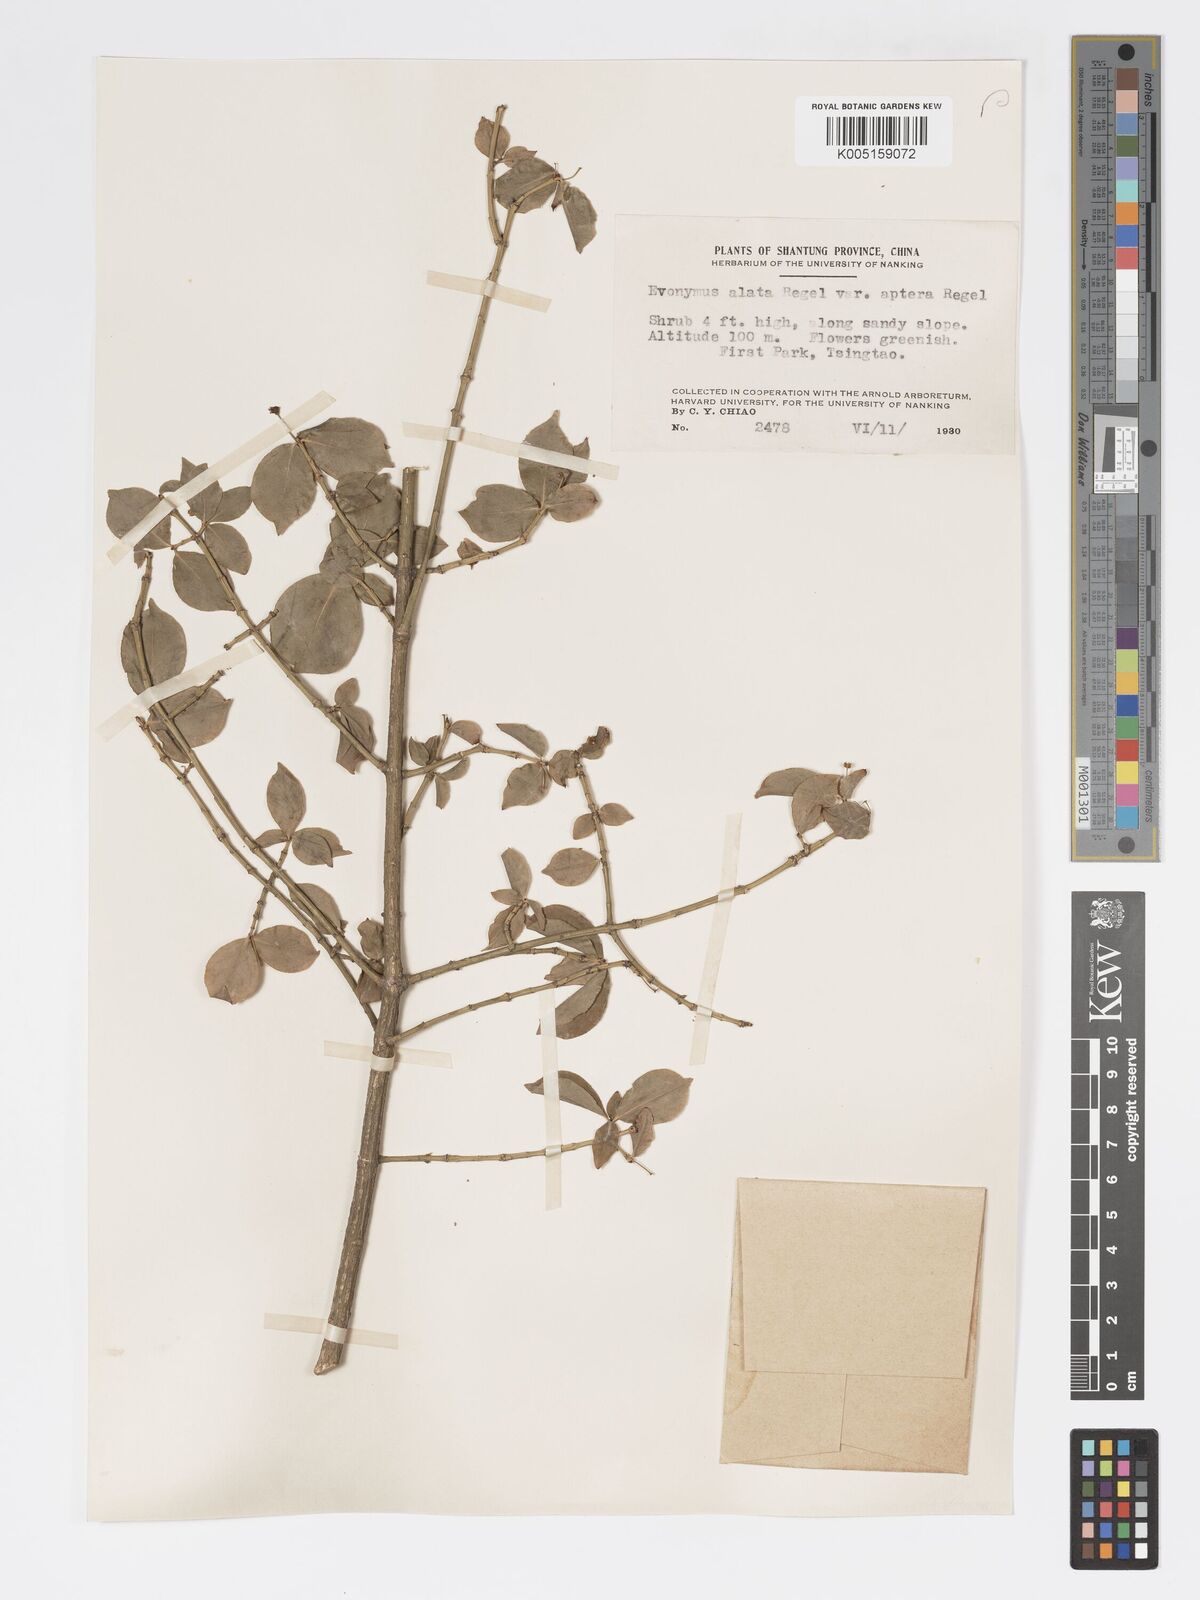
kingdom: Plantae
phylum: Tracheophyta
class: Magnoliopsida
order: Celastrales
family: Celastraceae
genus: Euonymus
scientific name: Euonymus
